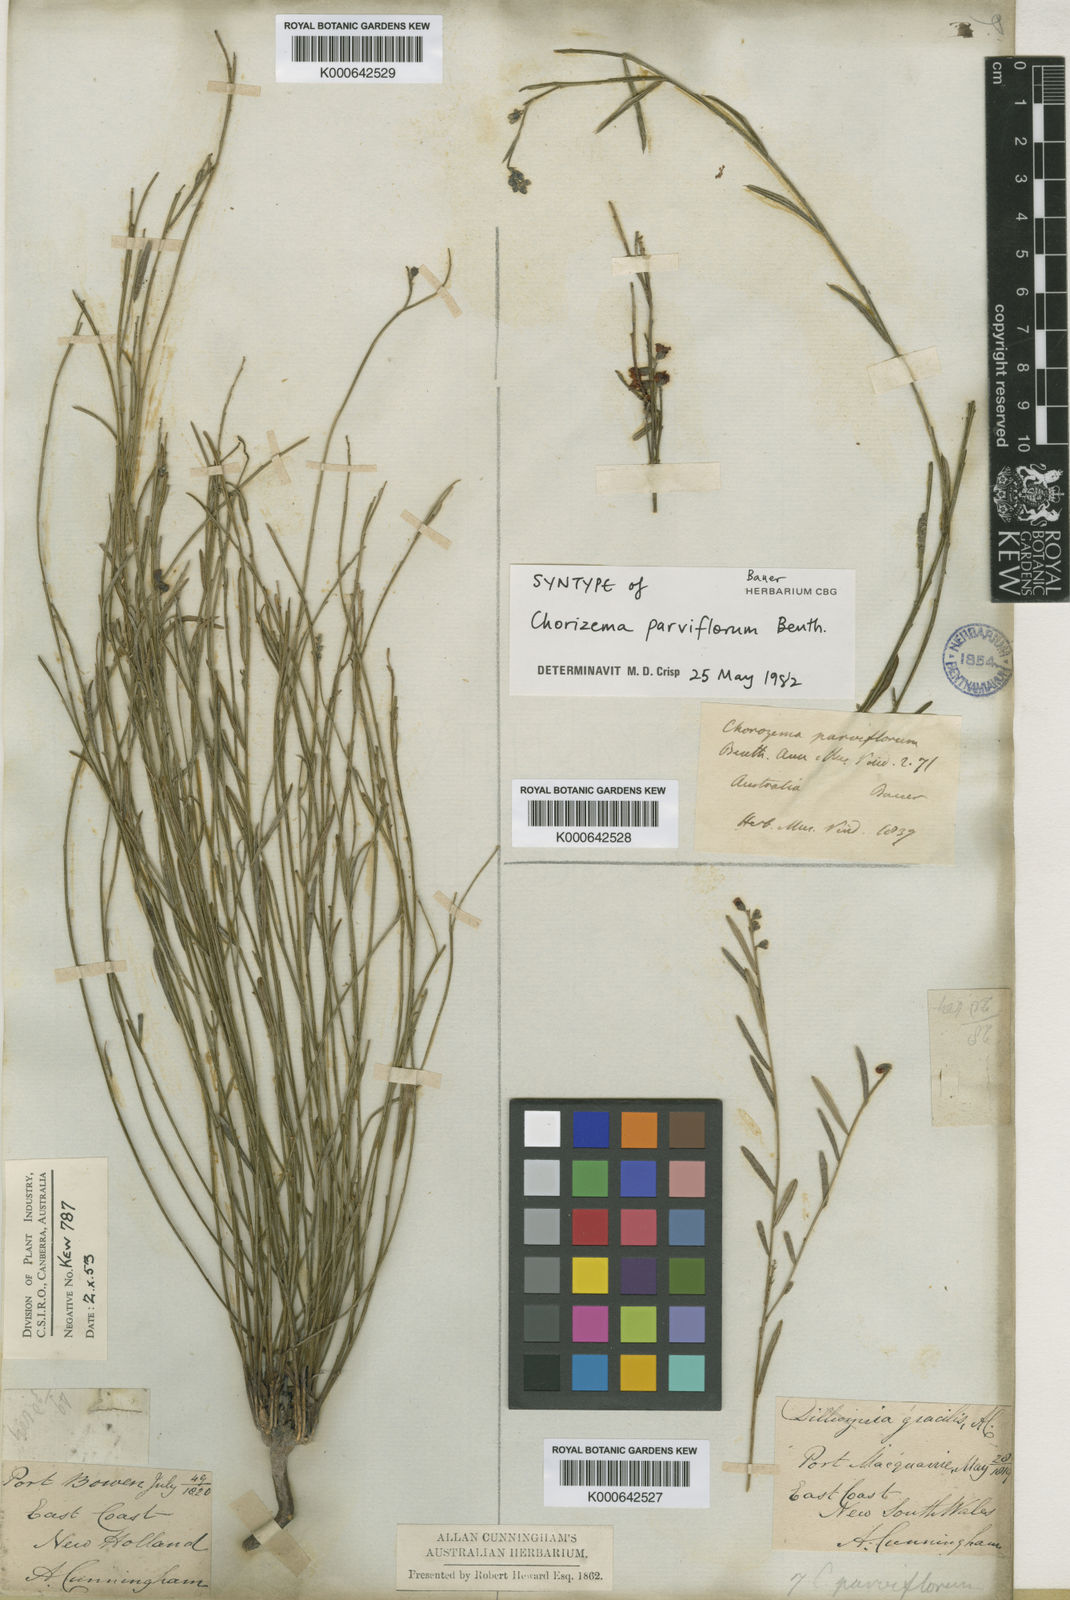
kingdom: Plantae
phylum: Tracheophyta
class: Magnoliopsida
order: Fabales
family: Fabaceae
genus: Chorizema
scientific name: Chorizema parviflorum
